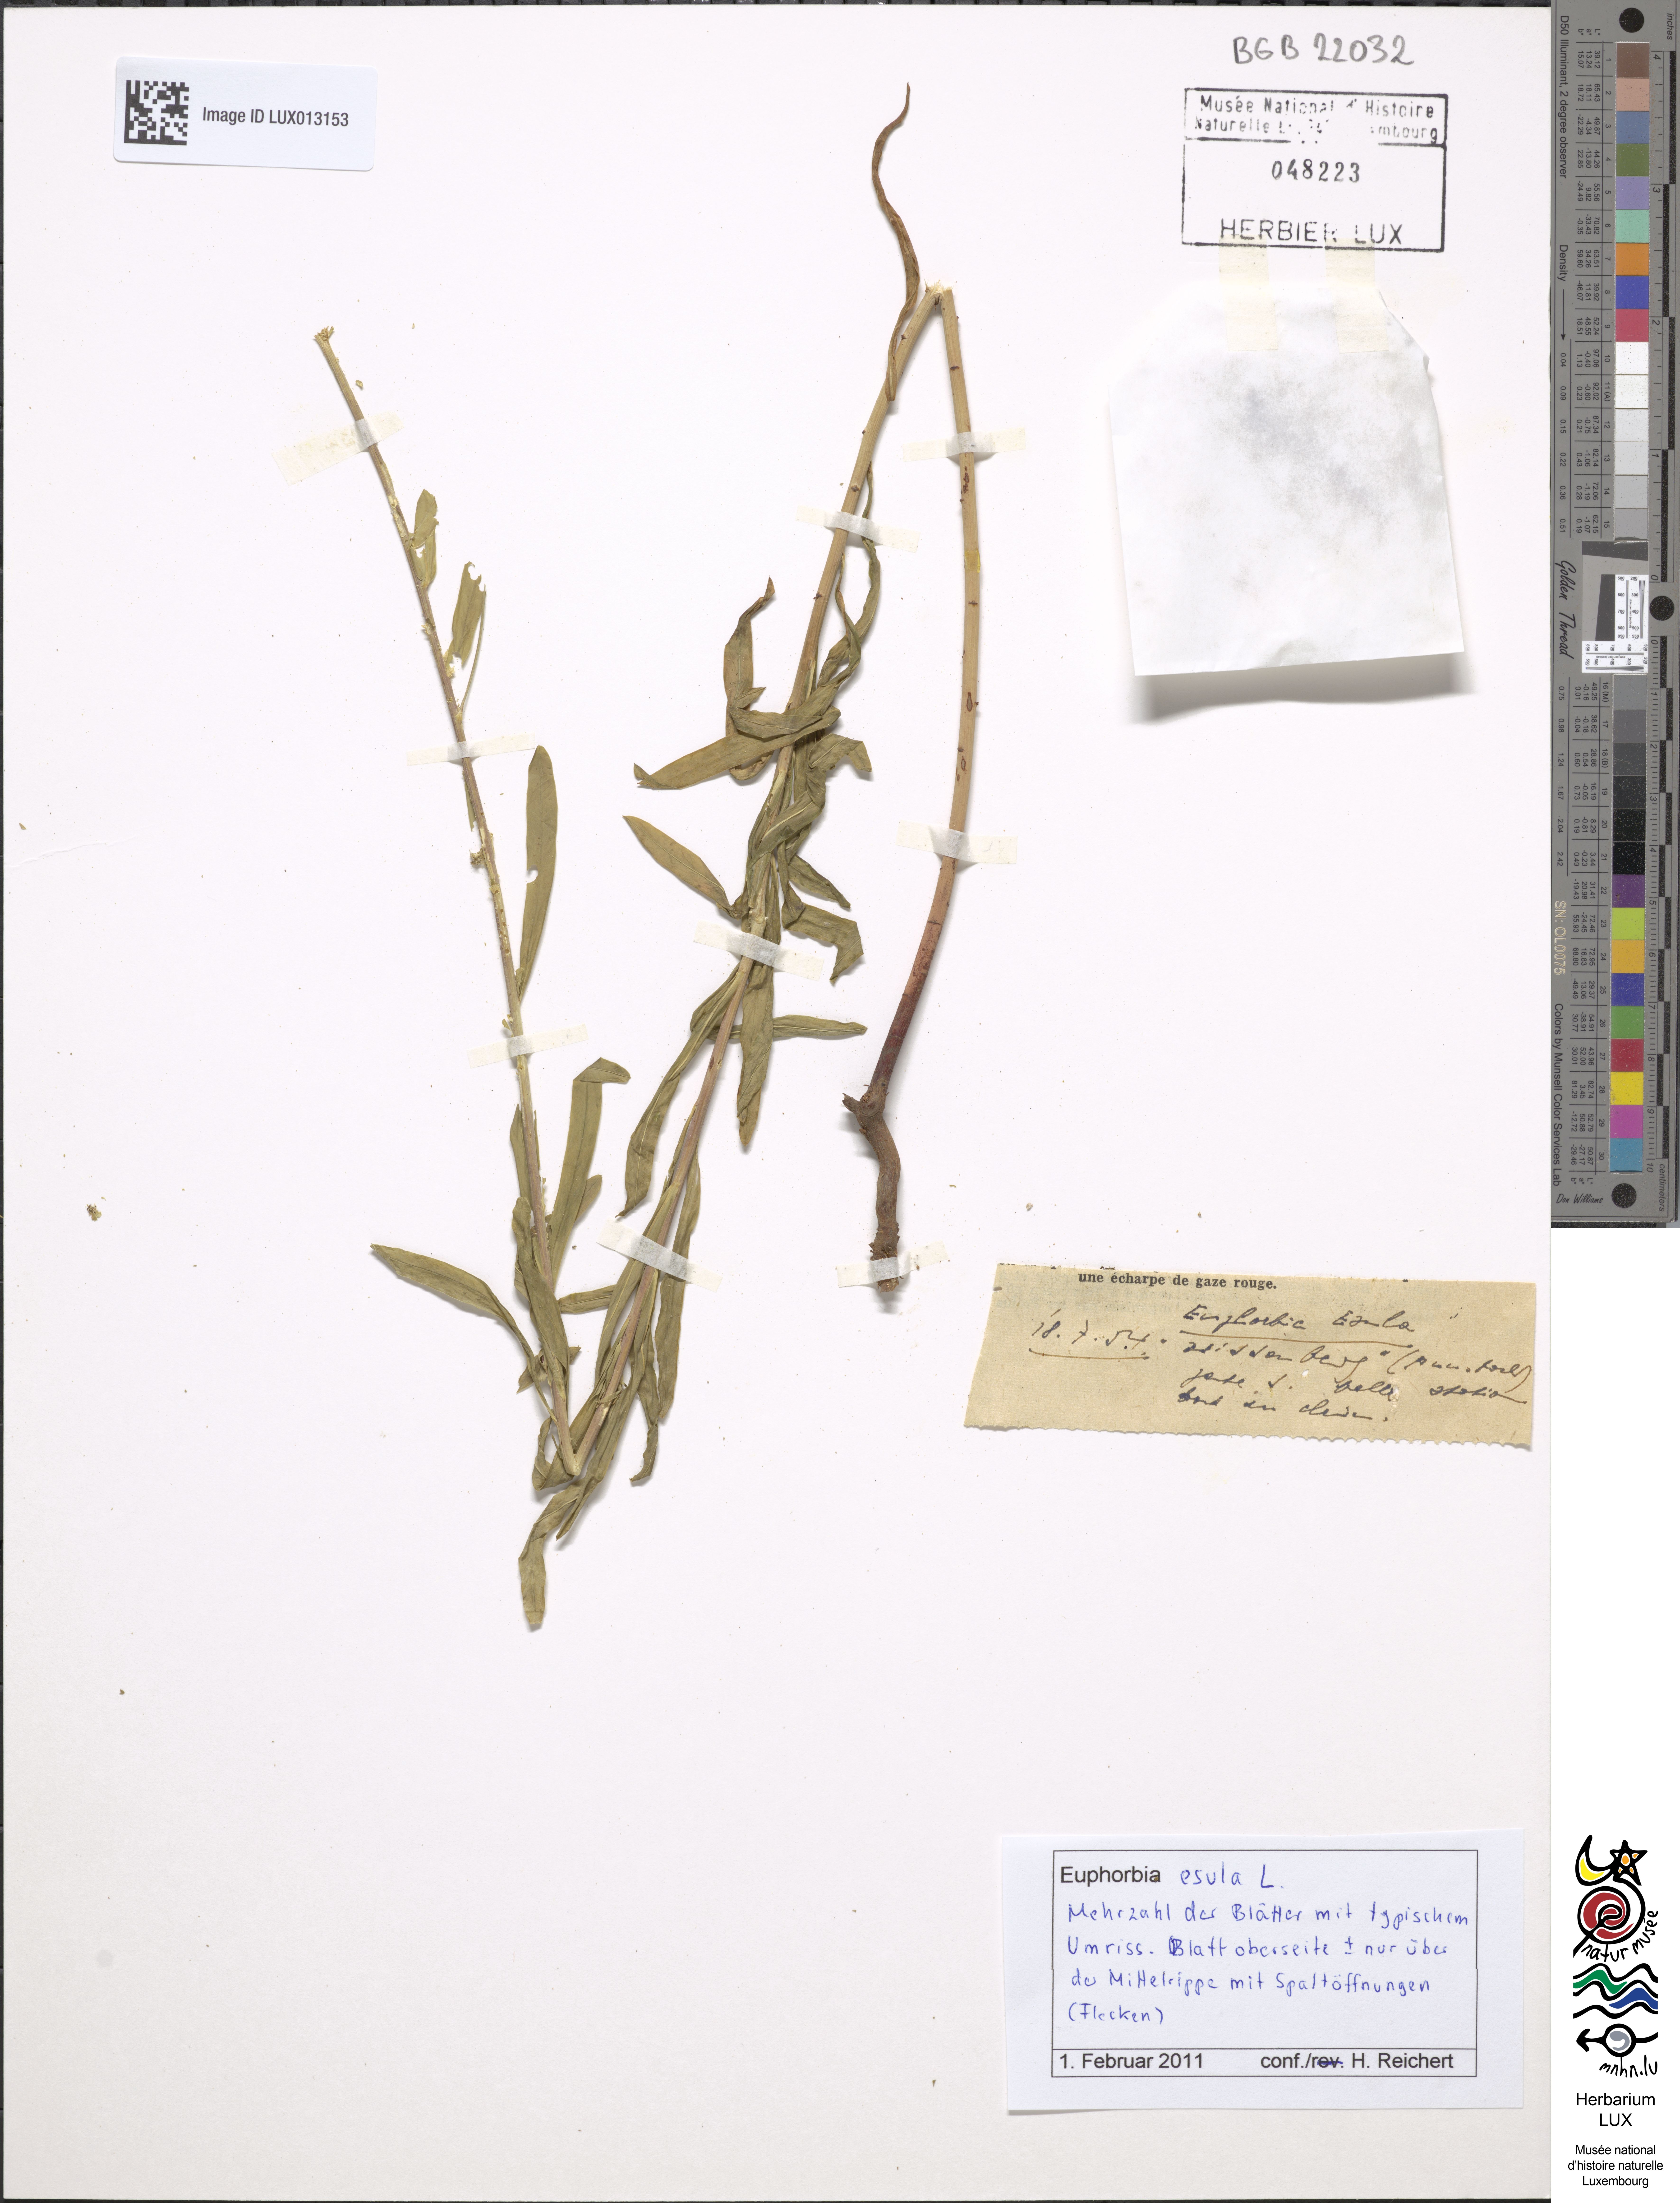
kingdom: Plantae
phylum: Tracheophyta
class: Magnoliopsida
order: Malpighiales
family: Euphorbiaceae
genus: Euphorbia
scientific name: Euphorbia esula
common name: Leafy spurge
